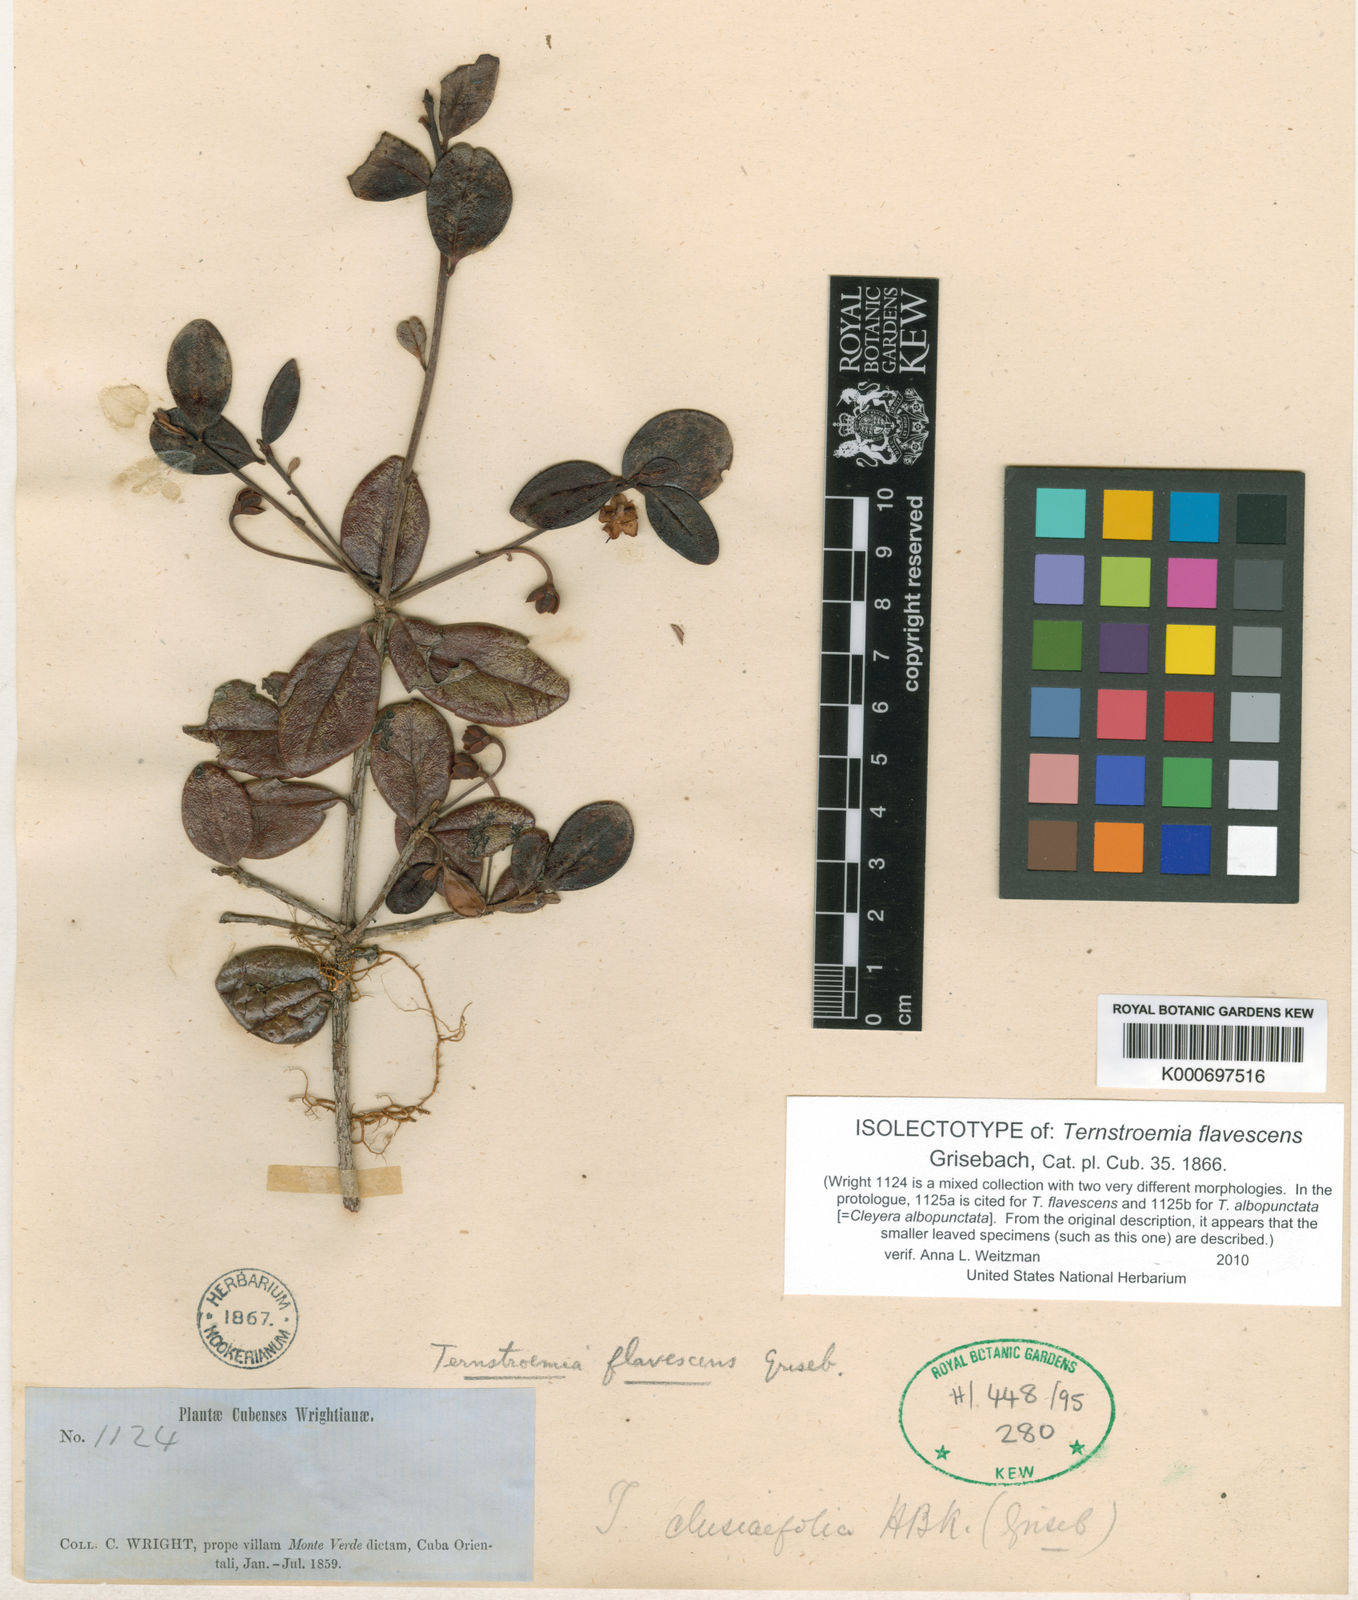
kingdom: Plantae
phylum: Tracheophyta
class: Magnoliopsida
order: Ericales
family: Pentaphylacaceae
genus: Ternstroemia
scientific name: Ternstroemia flavescens
